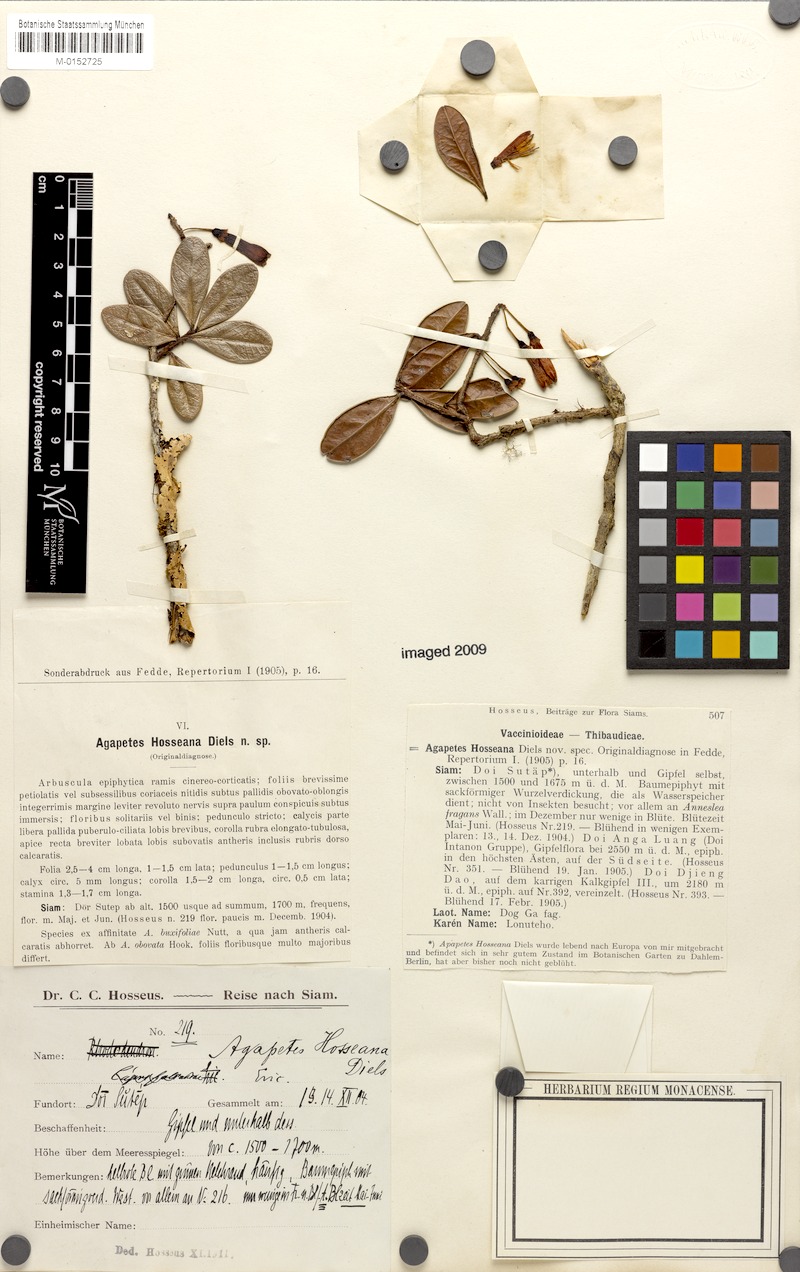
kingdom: Plantae
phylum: Tracheophyta
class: Magnoliopsida
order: Ericales
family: Ericaceae
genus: Agapetes
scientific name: Agapetes hosseana
